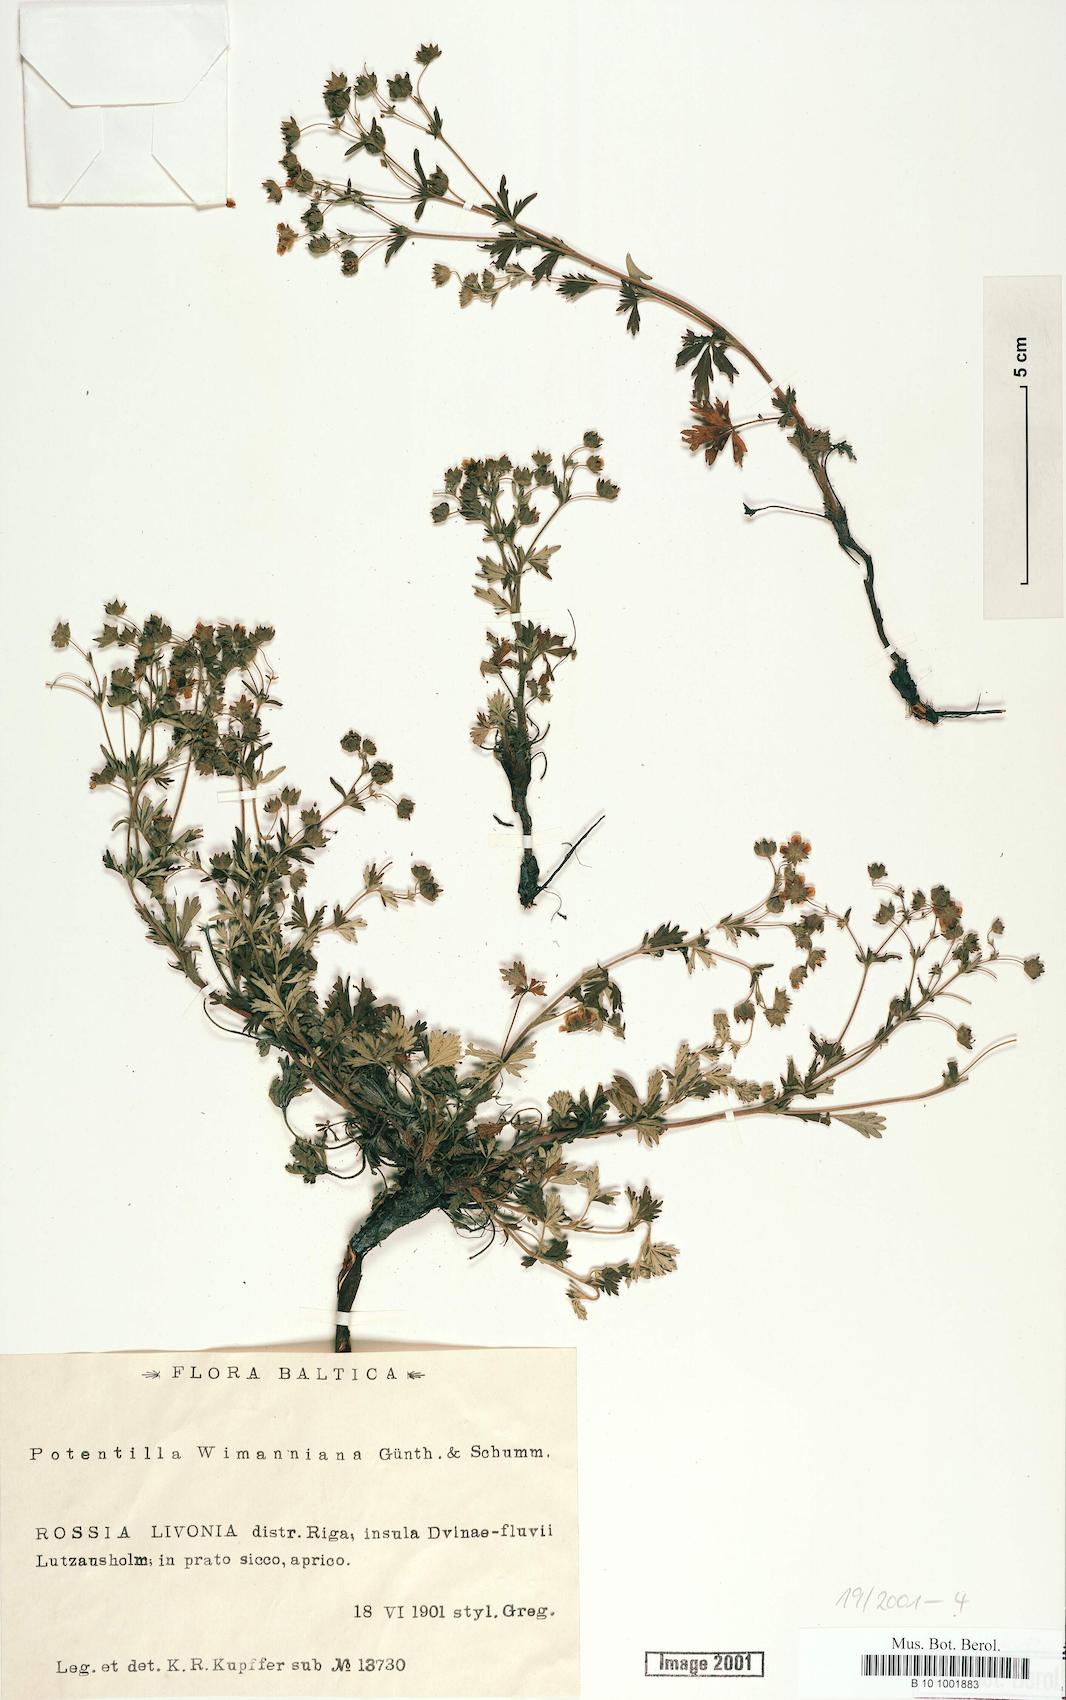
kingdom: Plantae
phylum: Tracheophyta
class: Magnoliopsida
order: Rosales
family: Rosaceae
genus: Potentilla
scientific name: Potentilla
